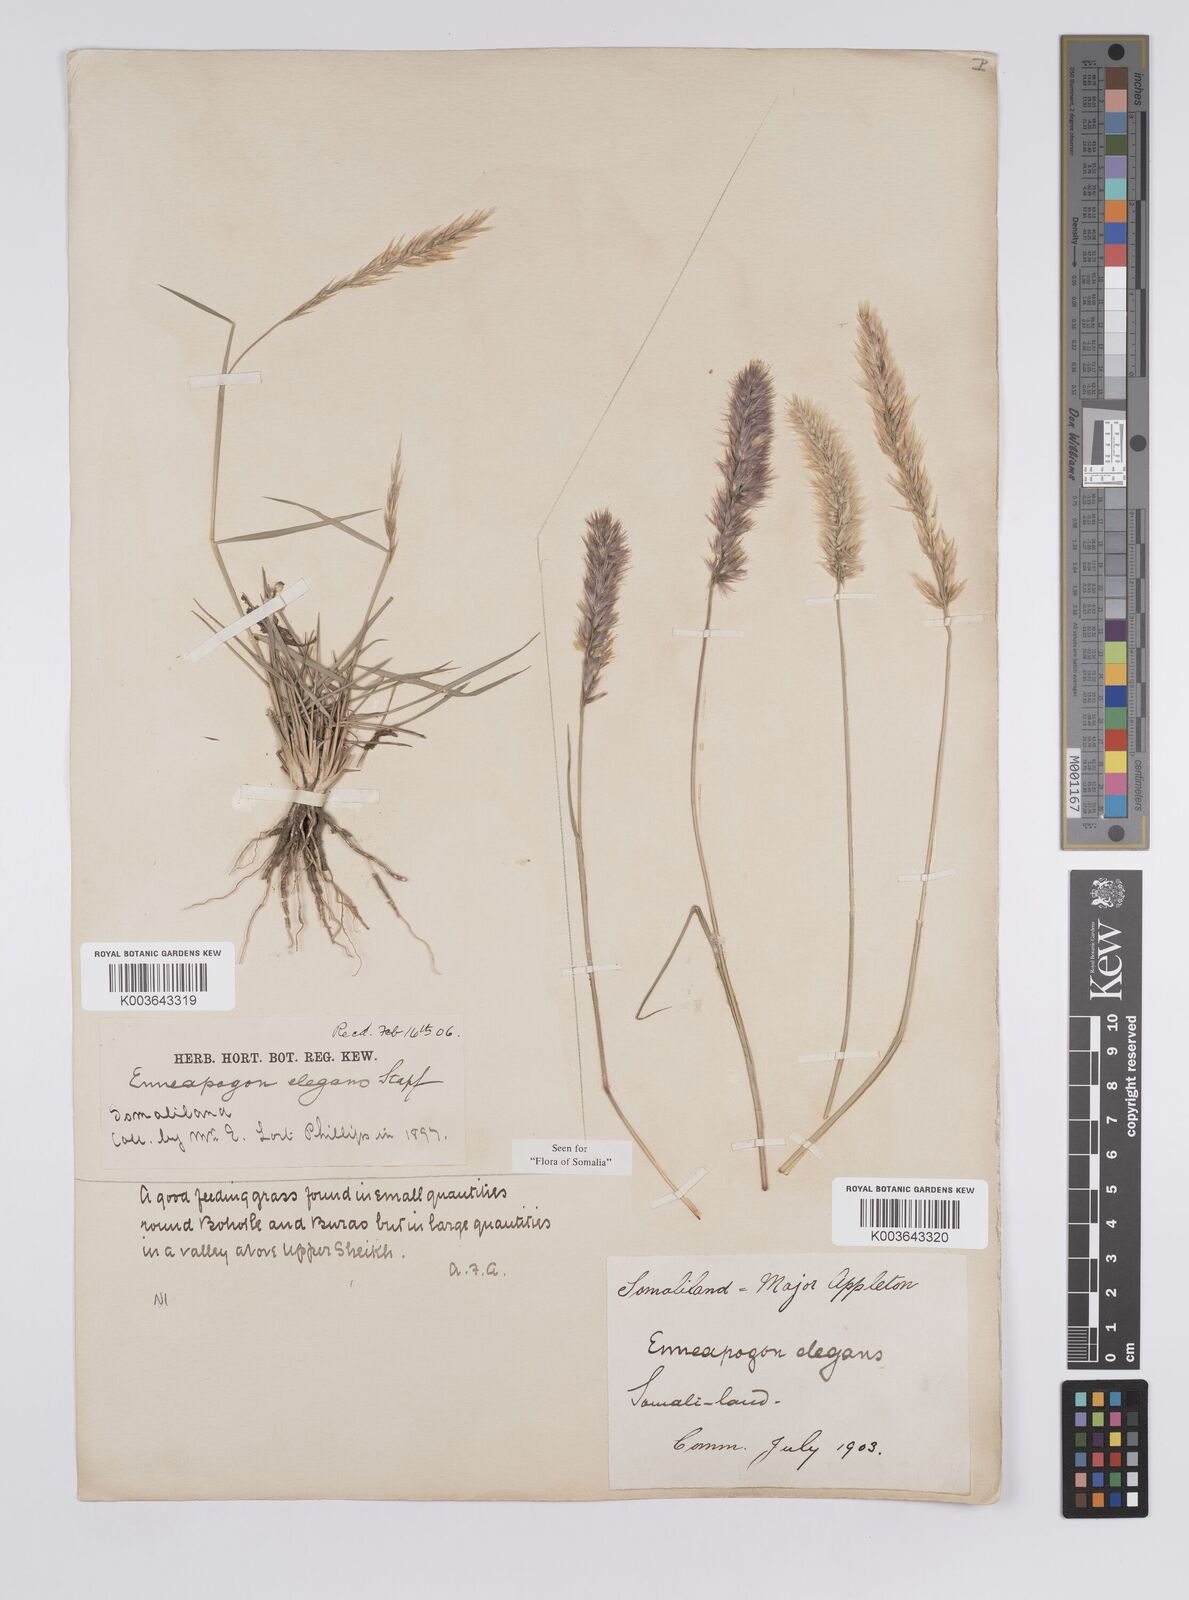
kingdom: Plantae
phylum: Tracheophyta
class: Liliopsida
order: Poales
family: Poaceae
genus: Enneapogon
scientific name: Enneapogon persicus
